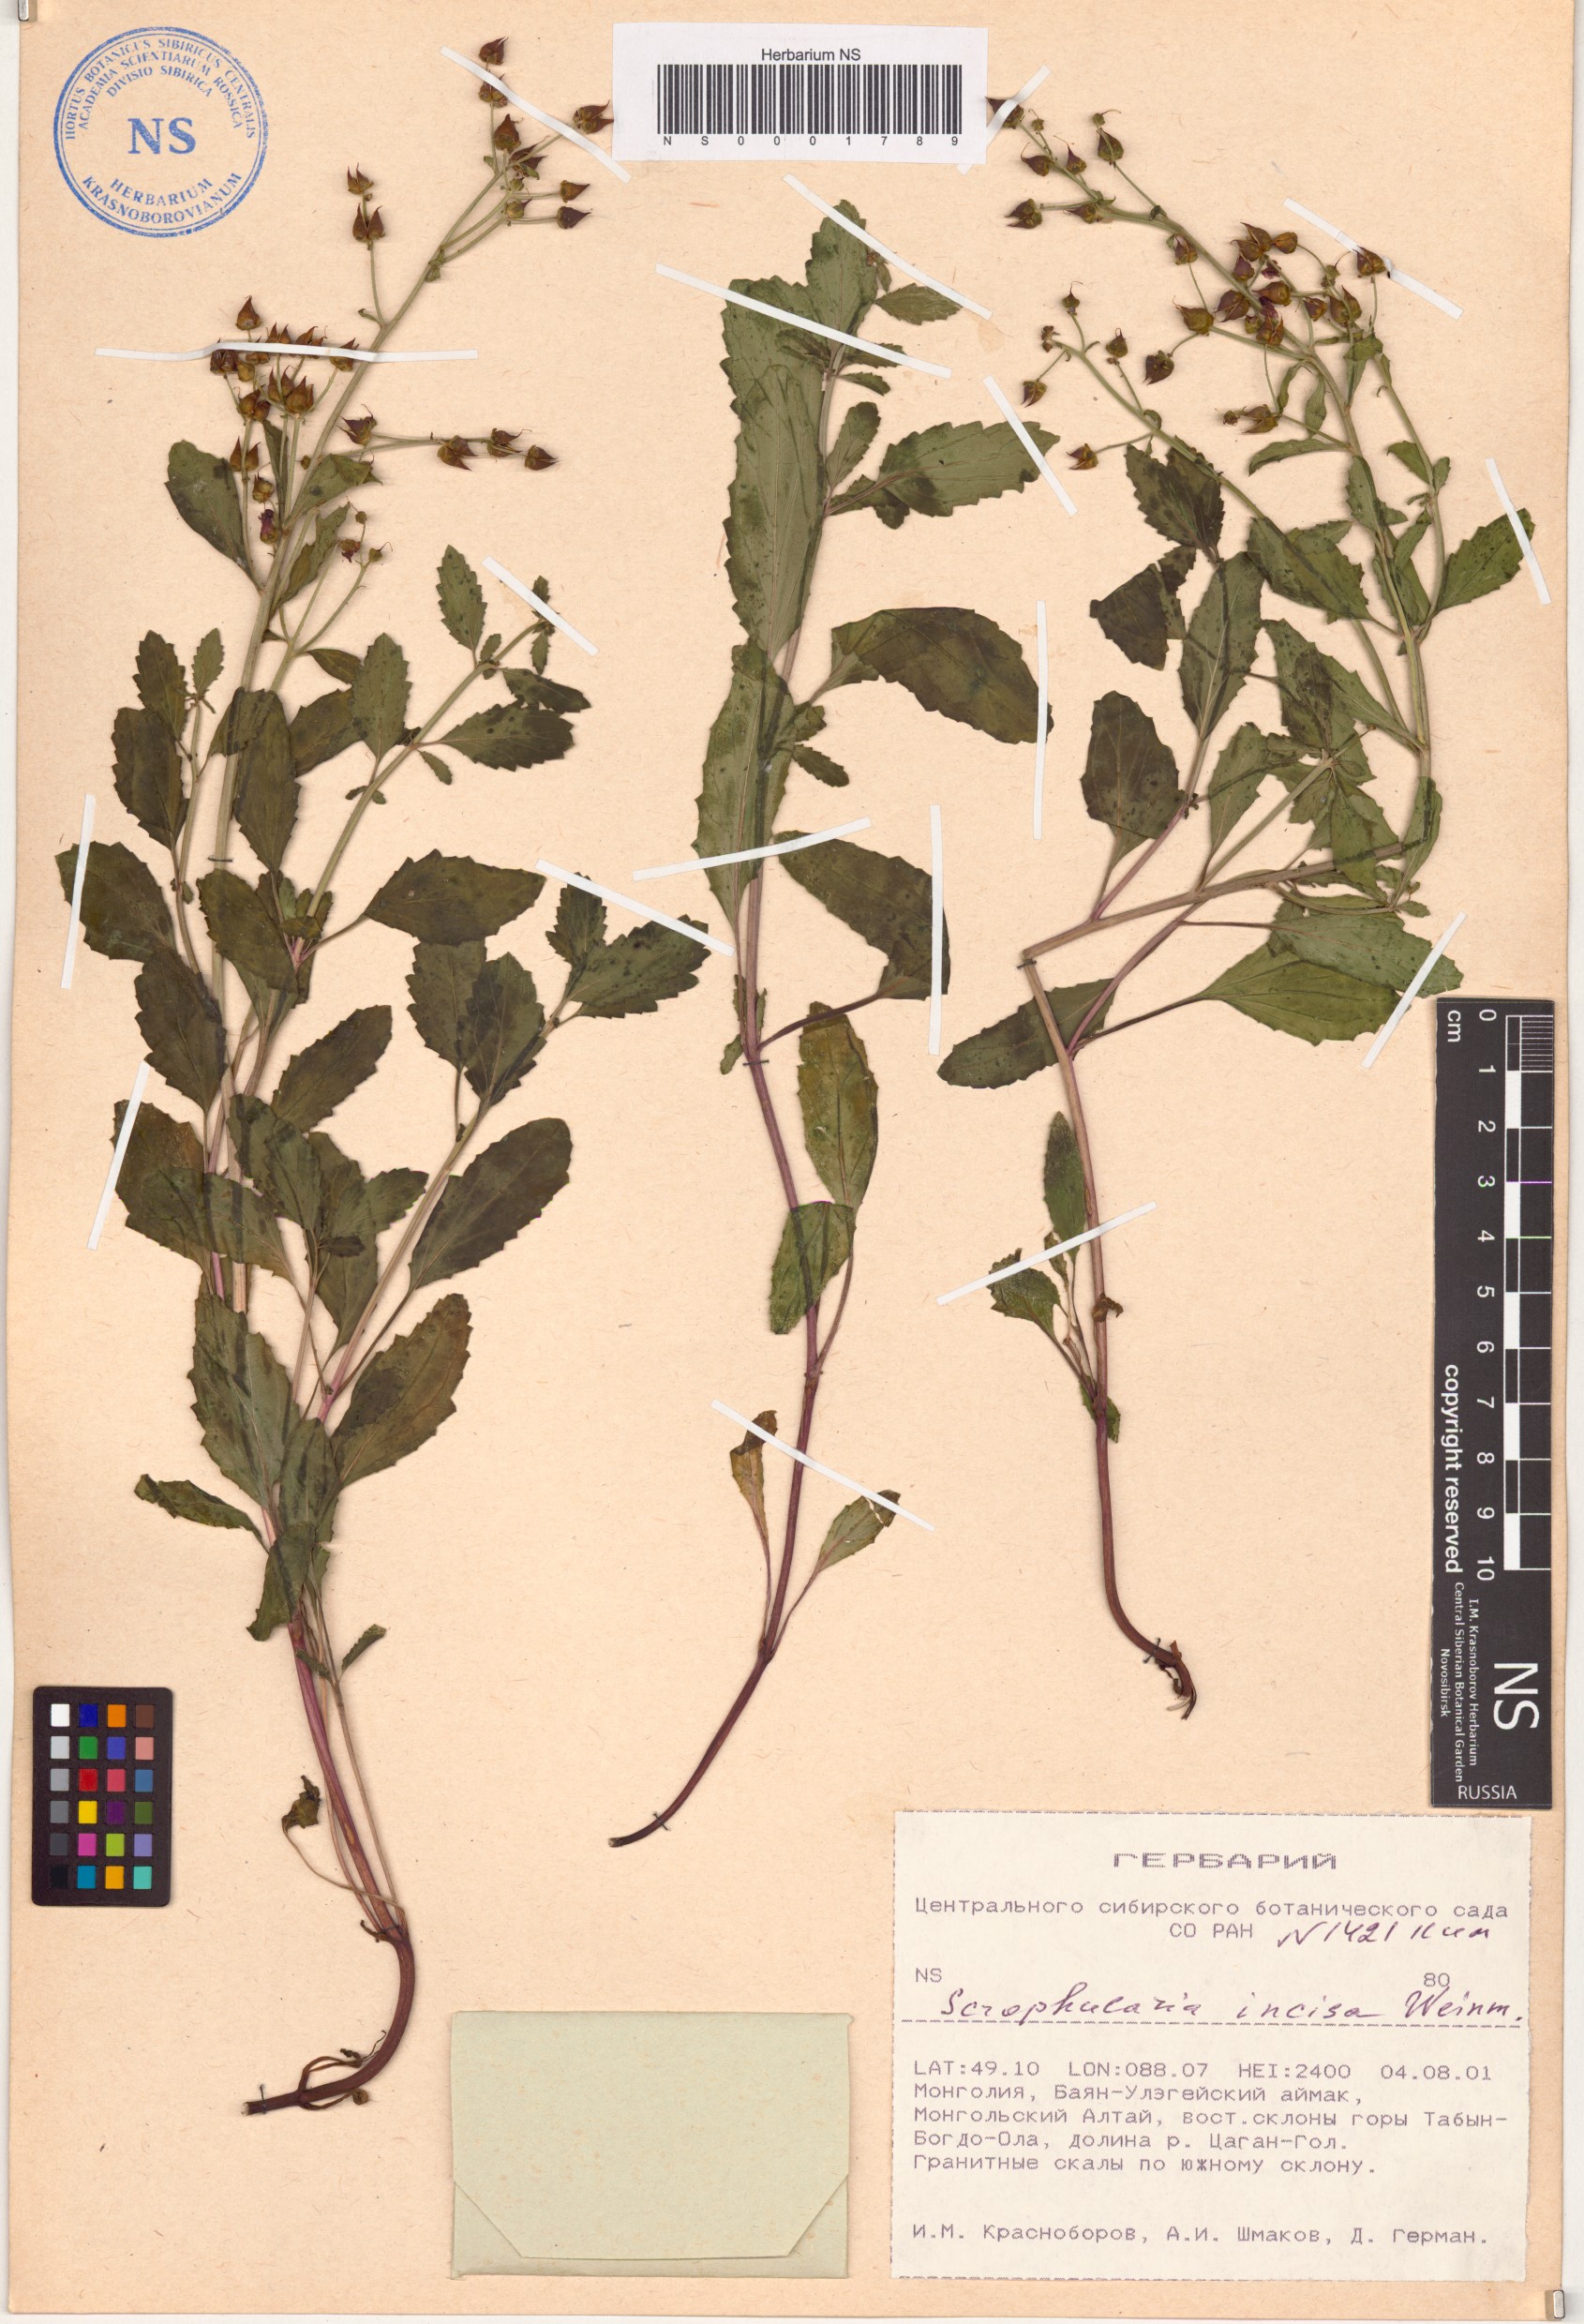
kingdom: Plantae
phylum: Tracheophyta
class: Magnoliopsida
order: Lamiales
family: Scrophulariaceae
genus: Scrophularia
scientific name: Scrophularia incisa
